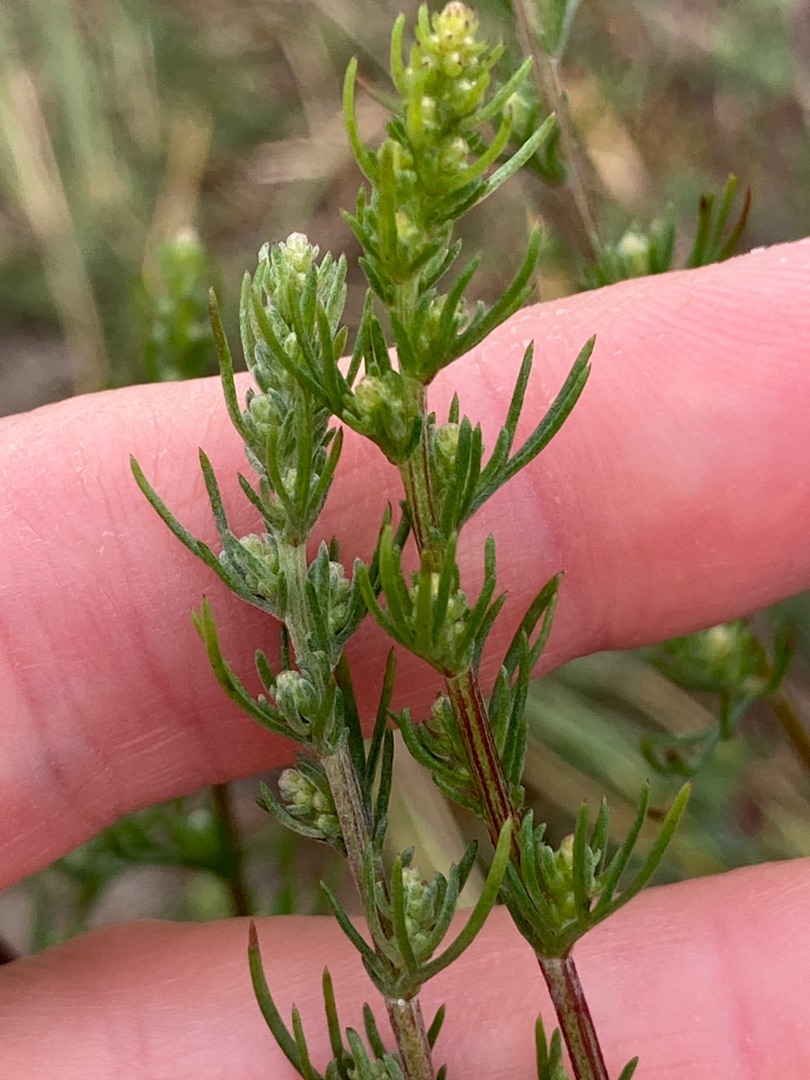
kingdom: Plantae
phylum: Tracheophyta
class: Magnoliopsida
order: Asterales
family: Asteraceae
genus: Artemisia
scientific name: Artemisia campestris
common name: Mark-bynke
